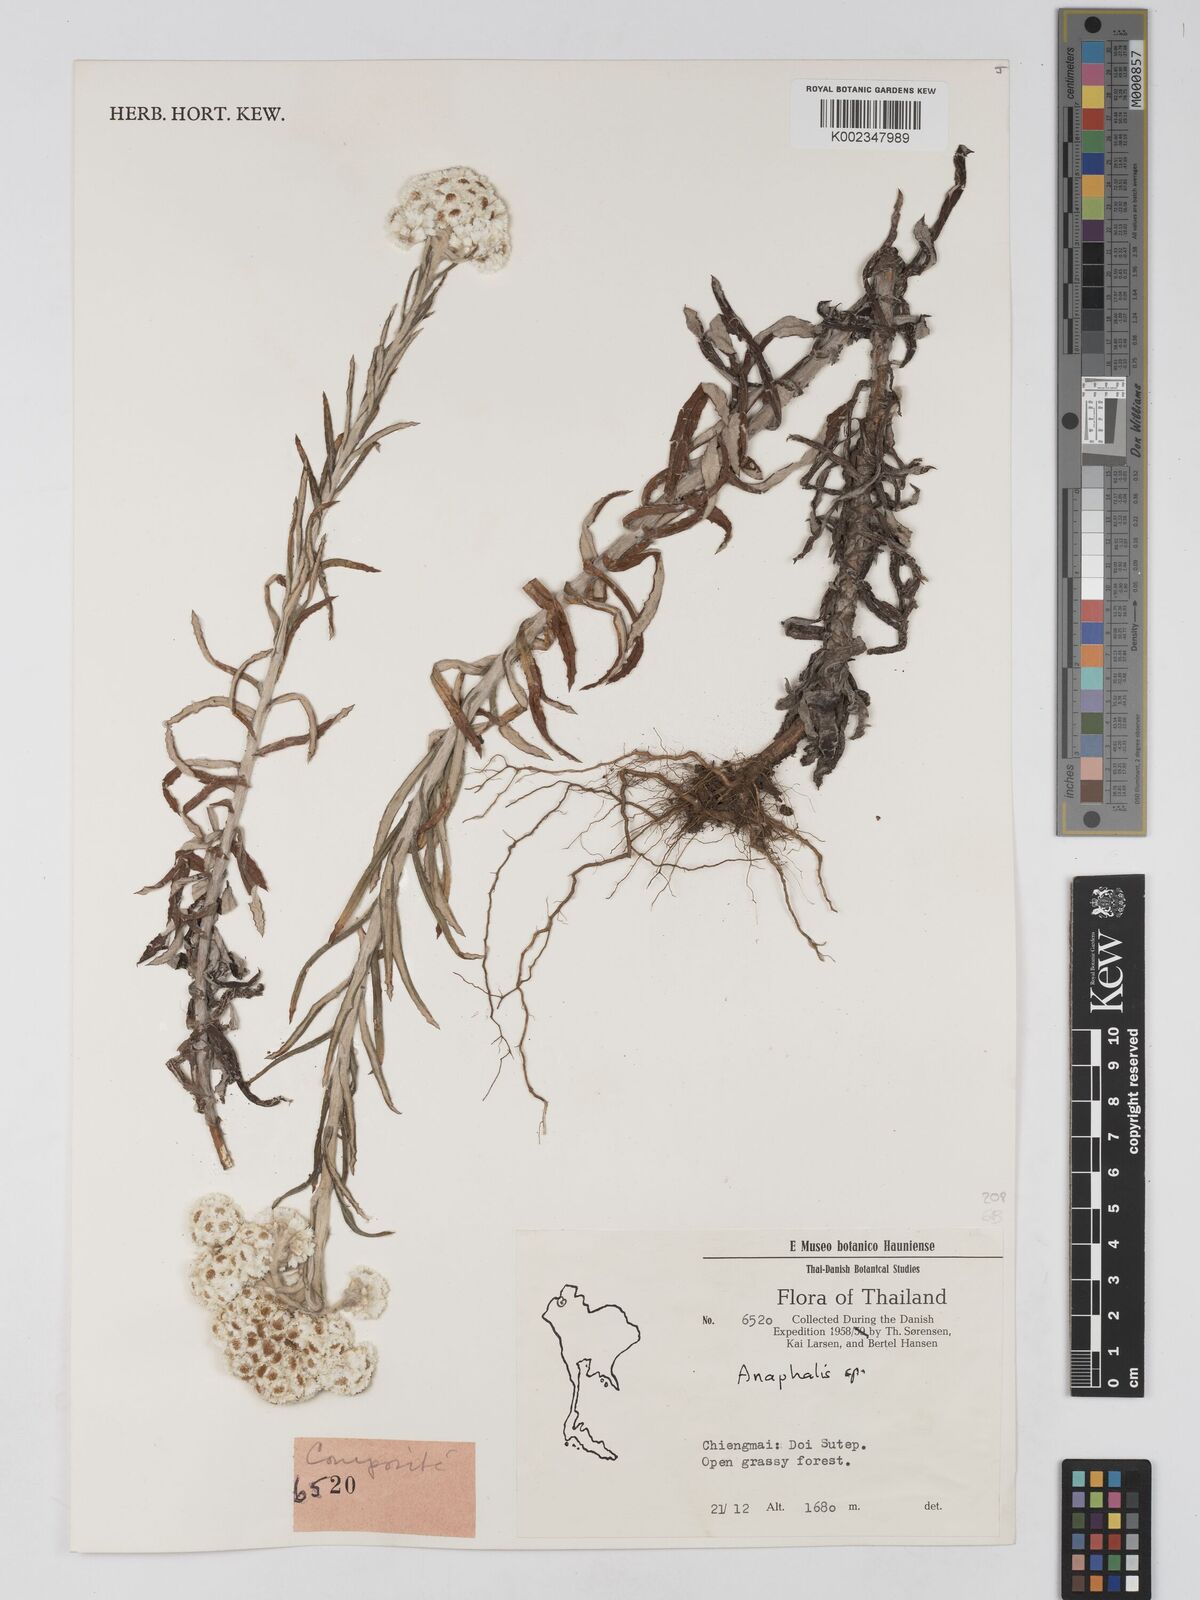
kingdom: Plantae
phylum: Tracheophyta
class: Magnoliopsida
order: Asterales
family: Asteraceae
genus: Anaphalis
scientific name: Anaphalis
